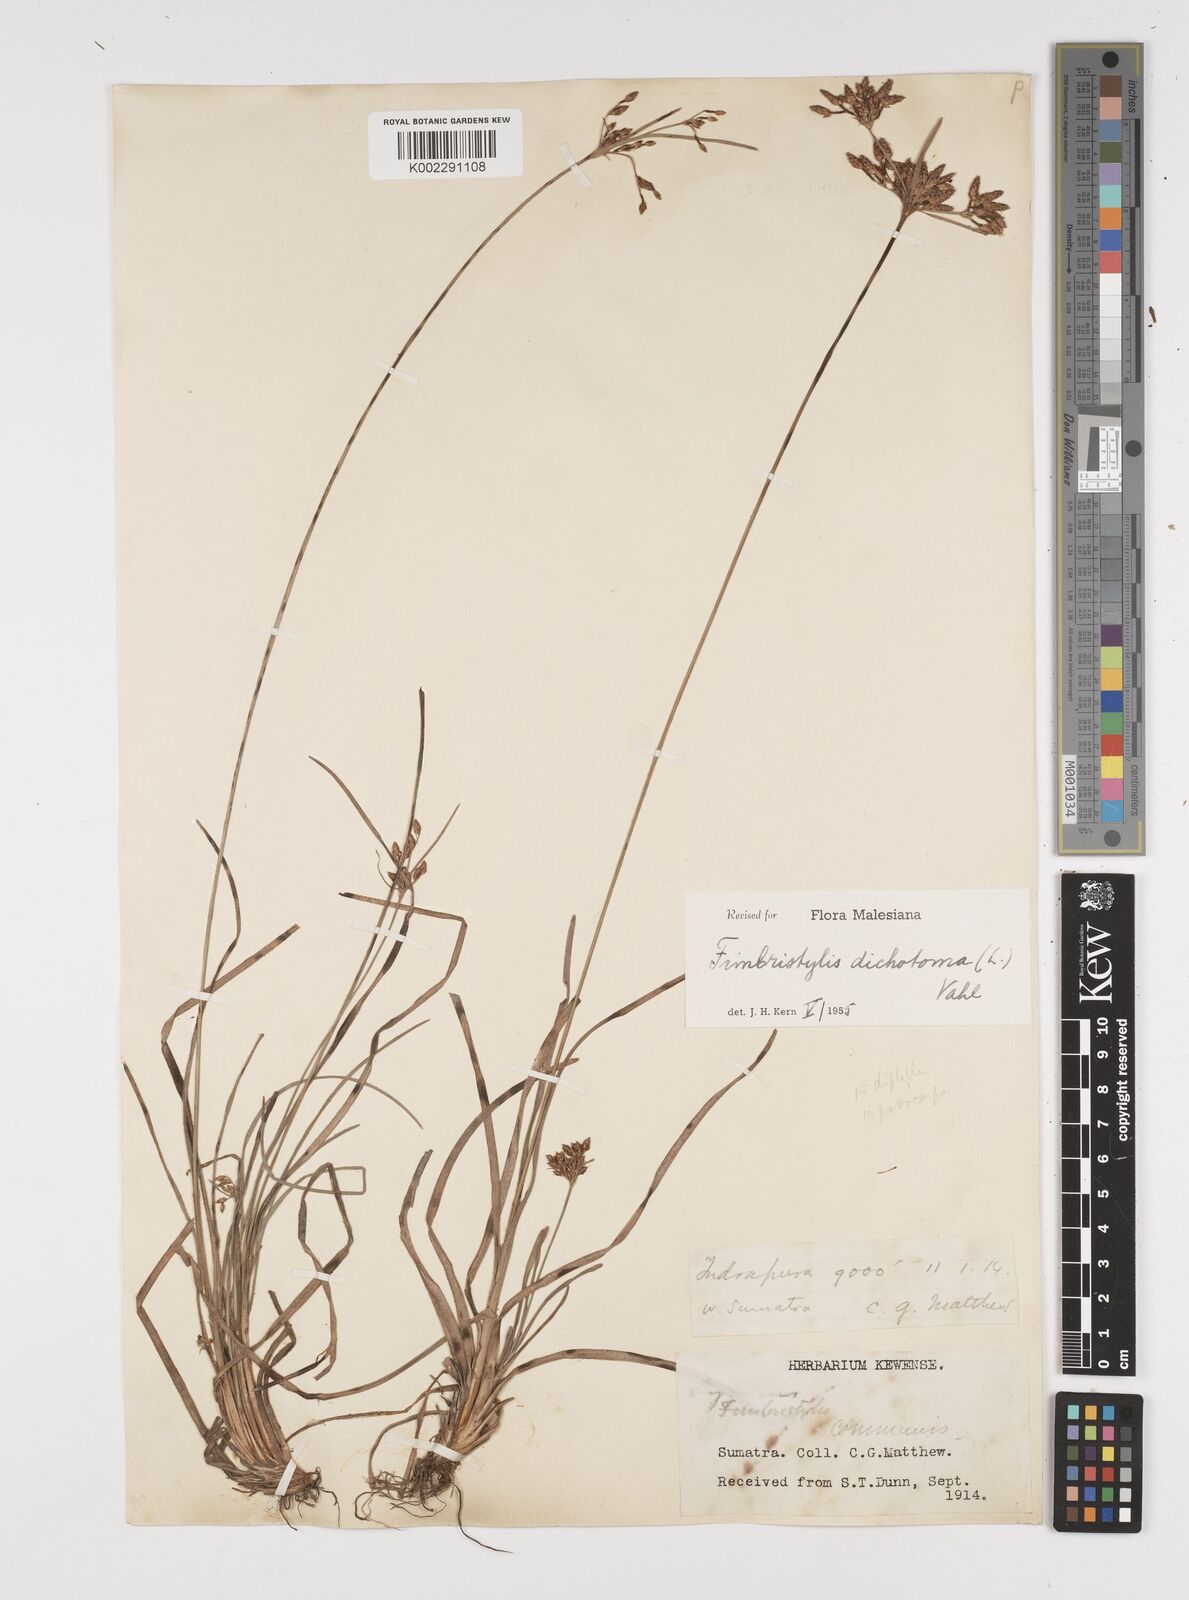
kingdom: Plantae
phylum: Tracheophyta
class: Liliopsida
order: Poales
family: Cyperaceae
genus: Fimbristylis
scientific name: Fimbristylis dichotoma
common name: Forked fimbry
